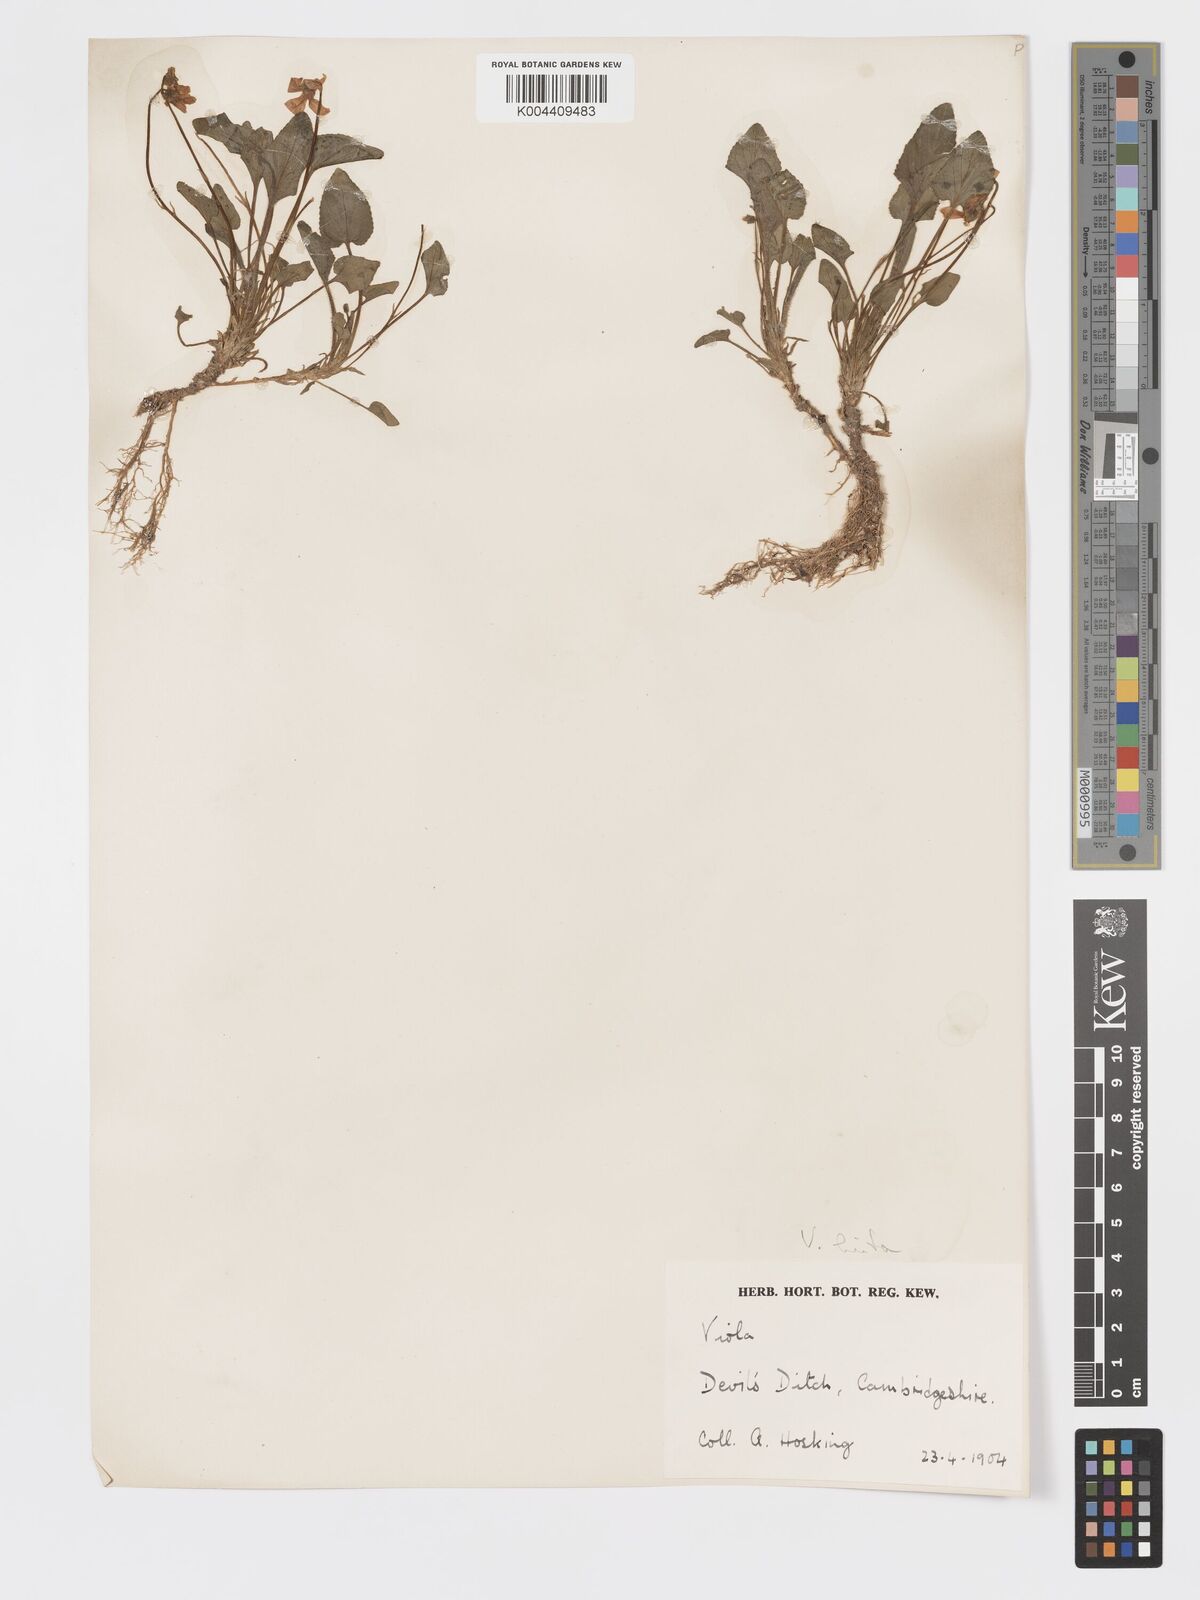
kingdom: Plantae
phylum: Tracheophyta
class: Magnoliopsida
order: Malpighiales
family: Violaceae
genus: Viola
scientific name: Viola
